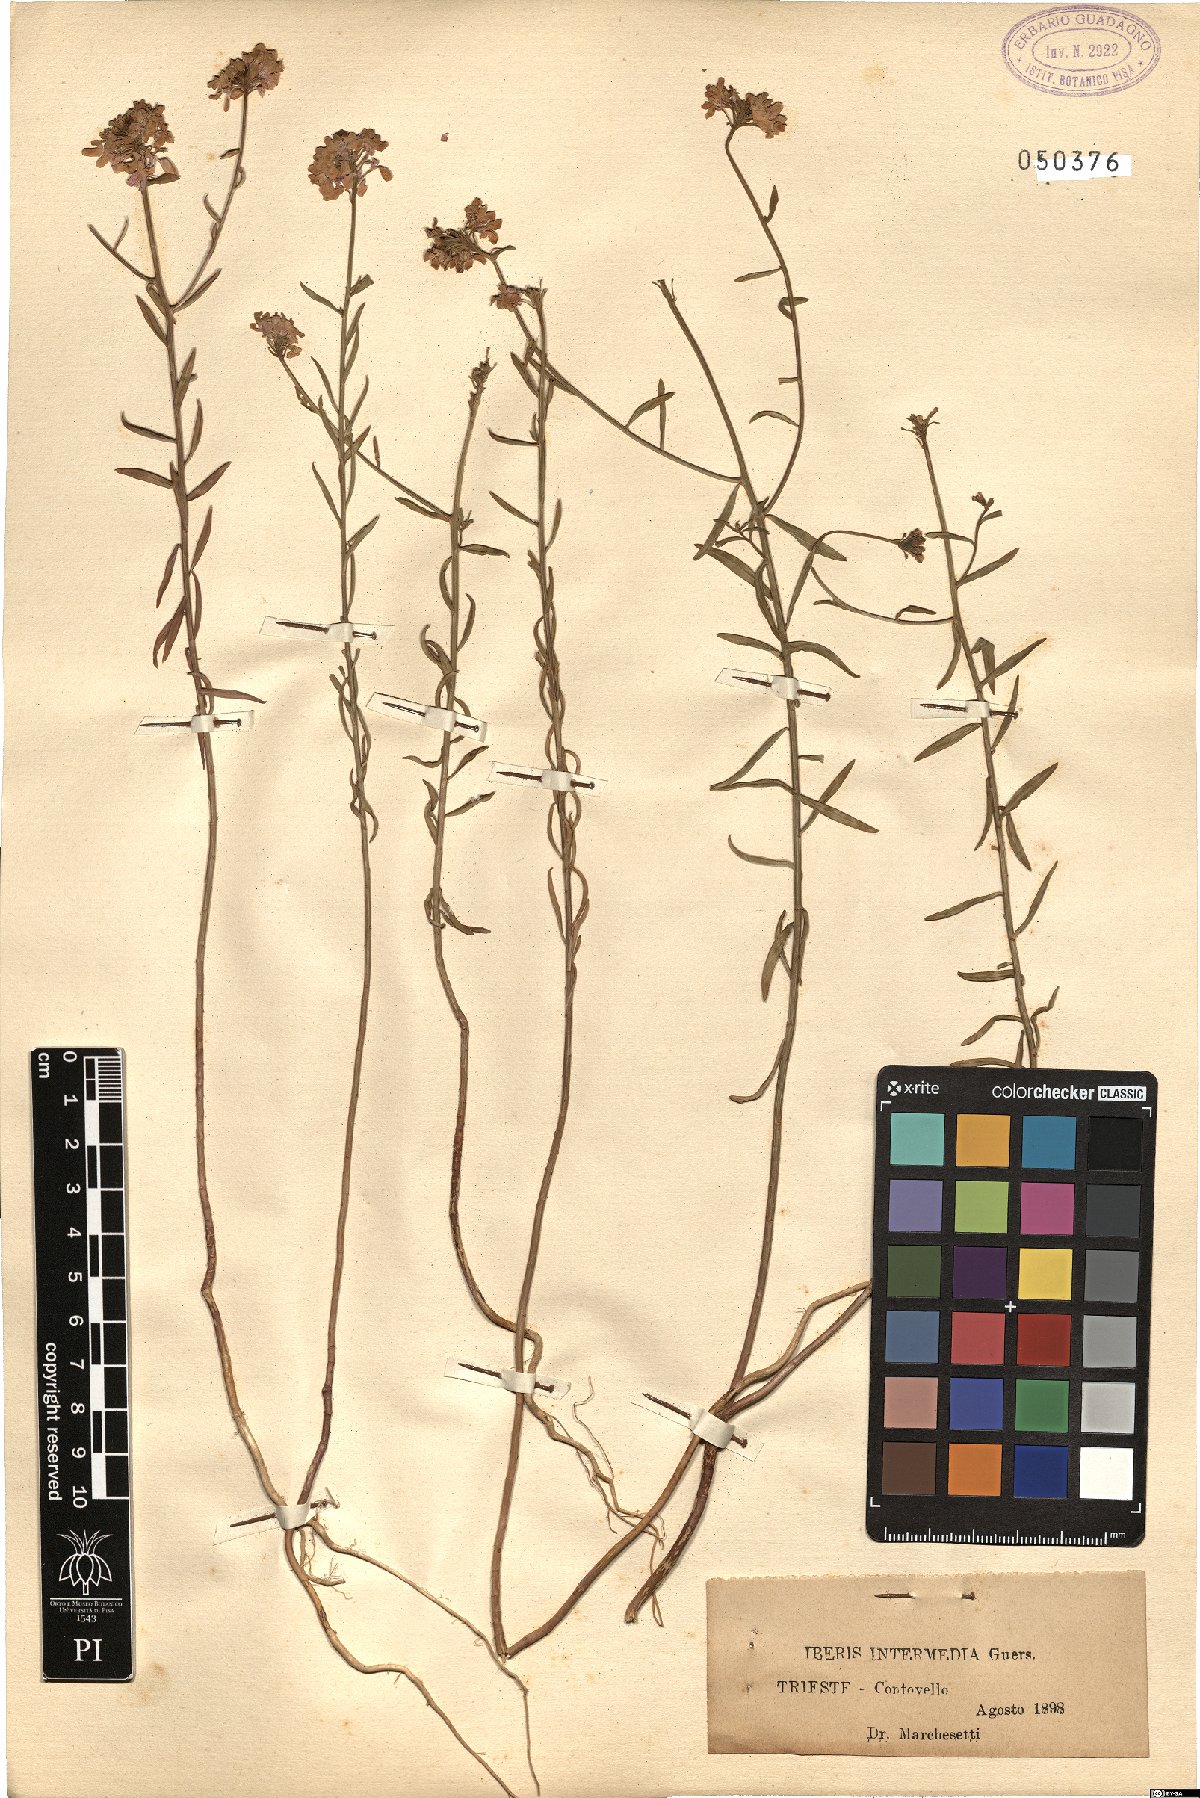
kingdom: Plantae
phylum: Tracheophyta
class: Magnoliopsida
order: Brassicales
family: Brassicaceae
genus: Iberis
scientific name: Iberis linifolia
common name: Candytuft
